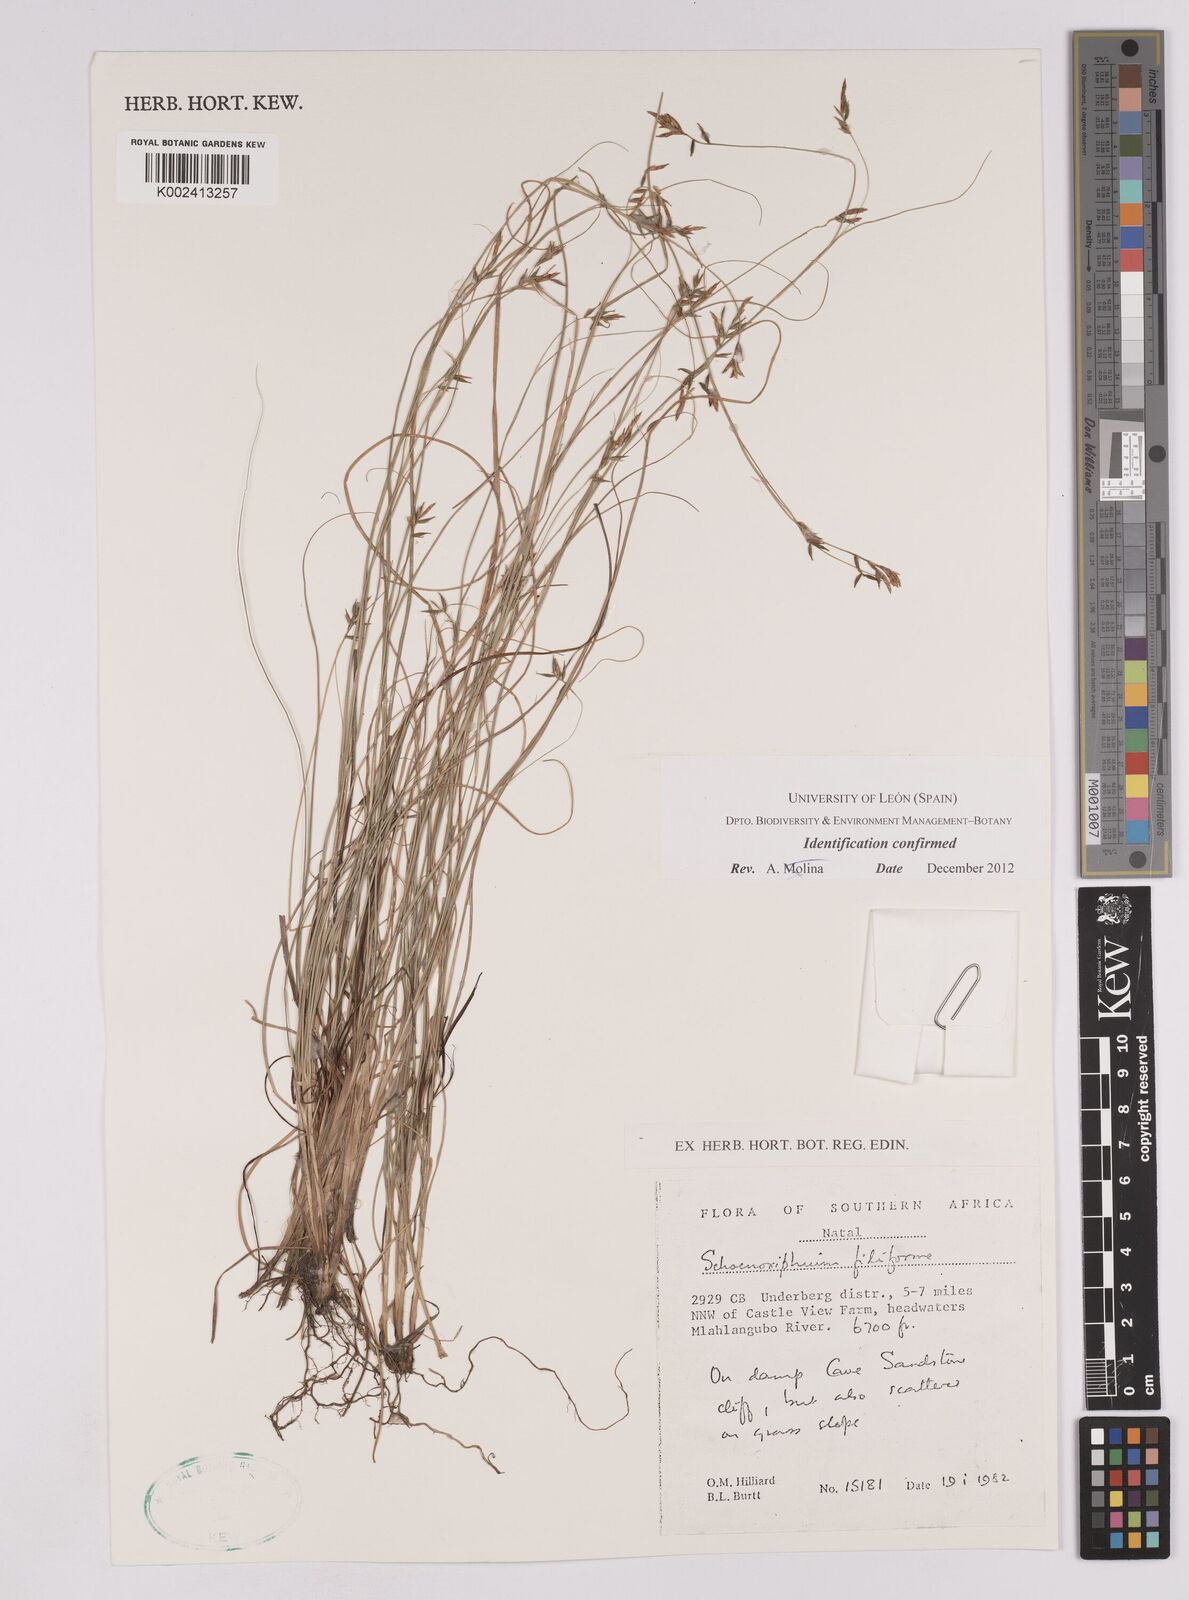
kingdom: Plantae
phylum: Tracheophyta
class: Liliopsida
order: Poales
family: Cyperaceae
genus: Carex
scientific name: Carex killickii
